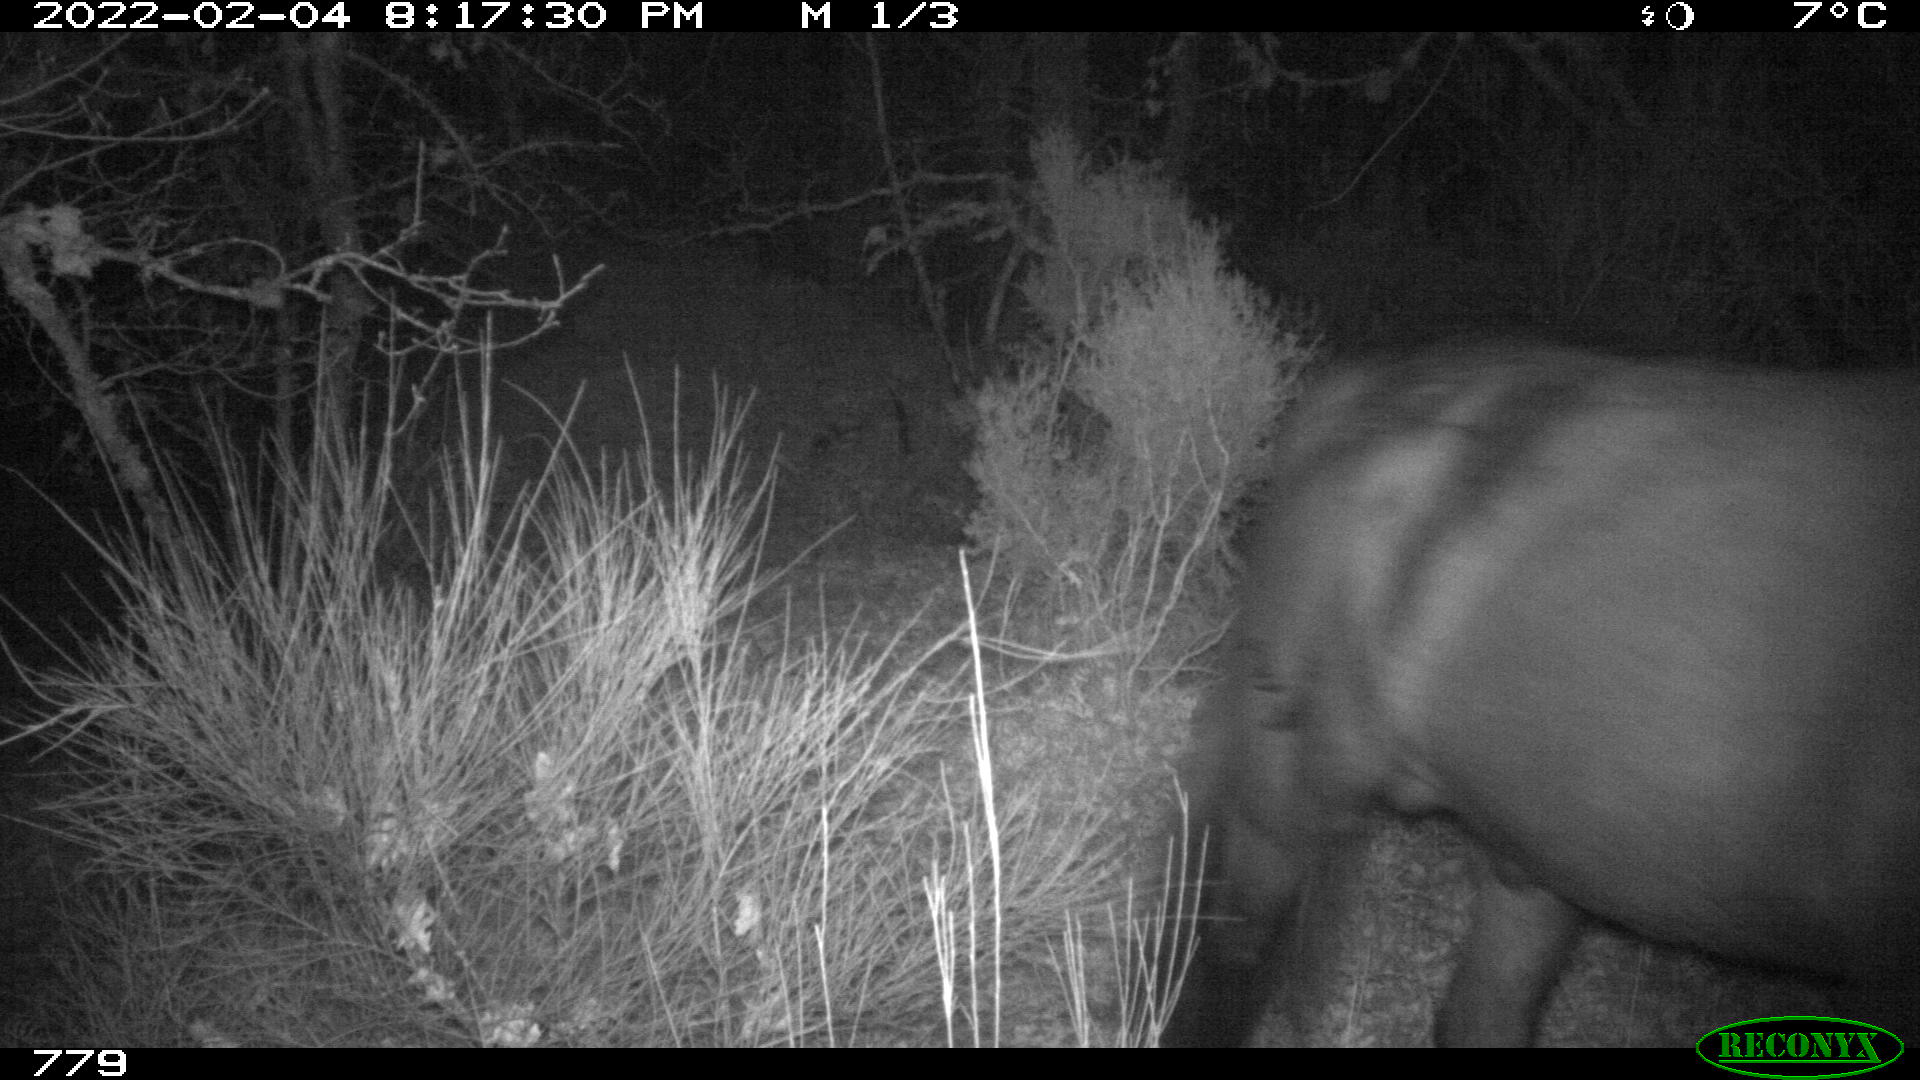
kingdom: Animalia
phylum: Chordata
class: Mammalia
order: Perissodactyla
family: Equidae
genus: Equus
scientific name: Equus caballus
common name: Horse
